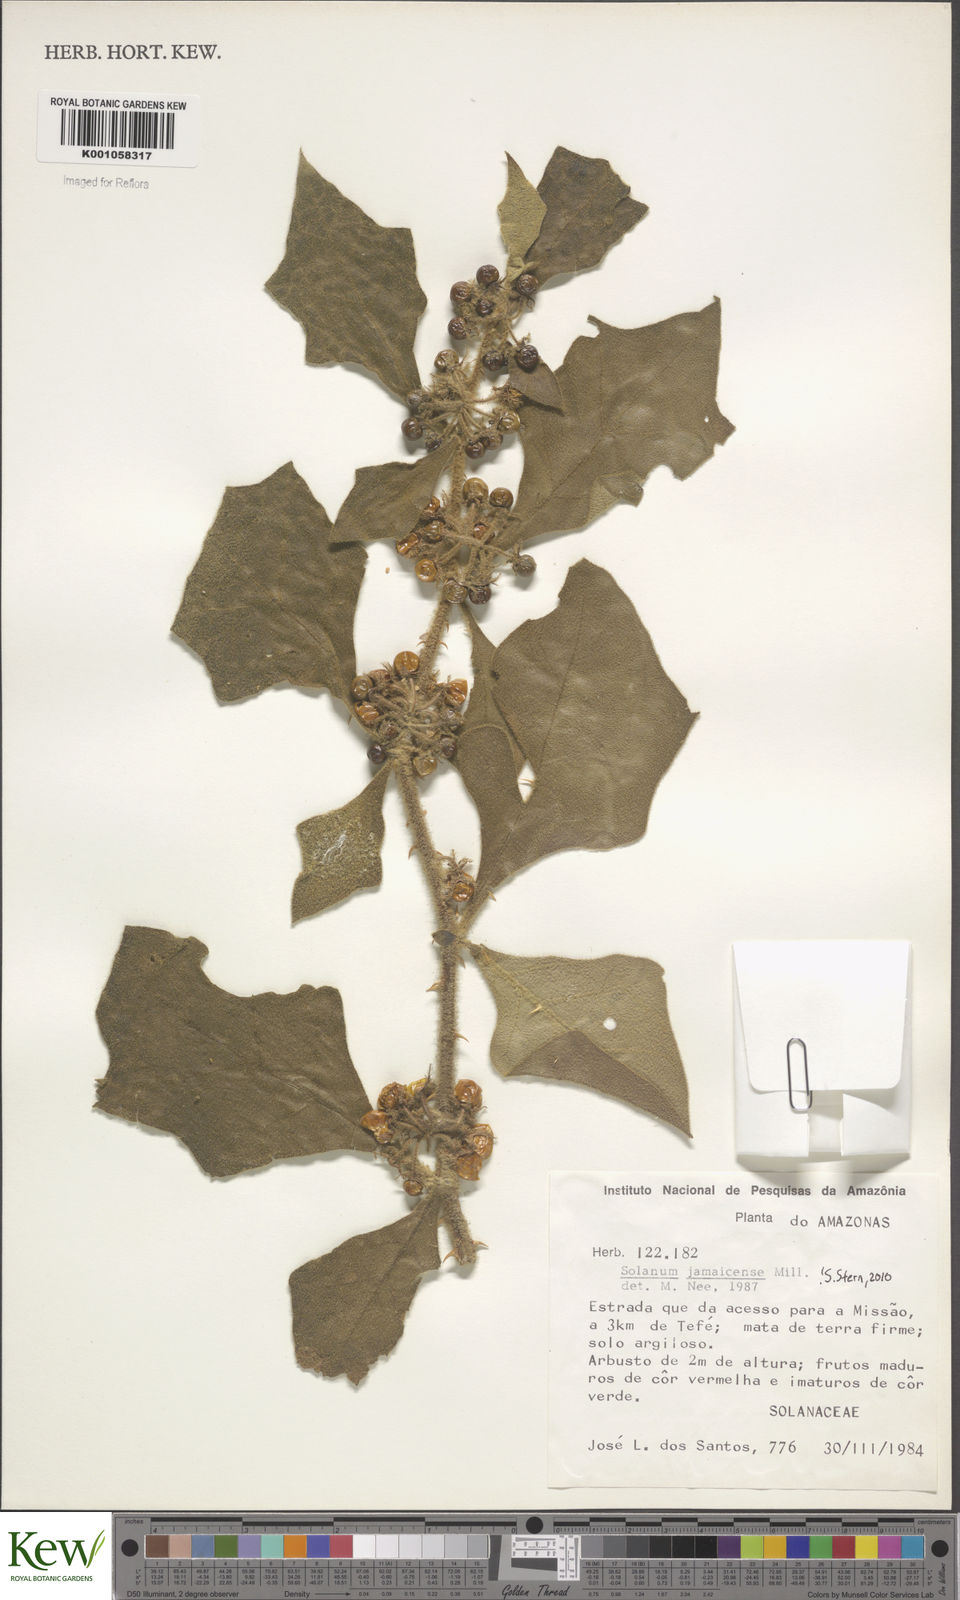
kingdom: Plantae
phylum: Tracheophyta
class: Magnoliopsida
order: Solanales
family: Solanaceae
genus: Solanum
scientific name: Solanum jamaicense
